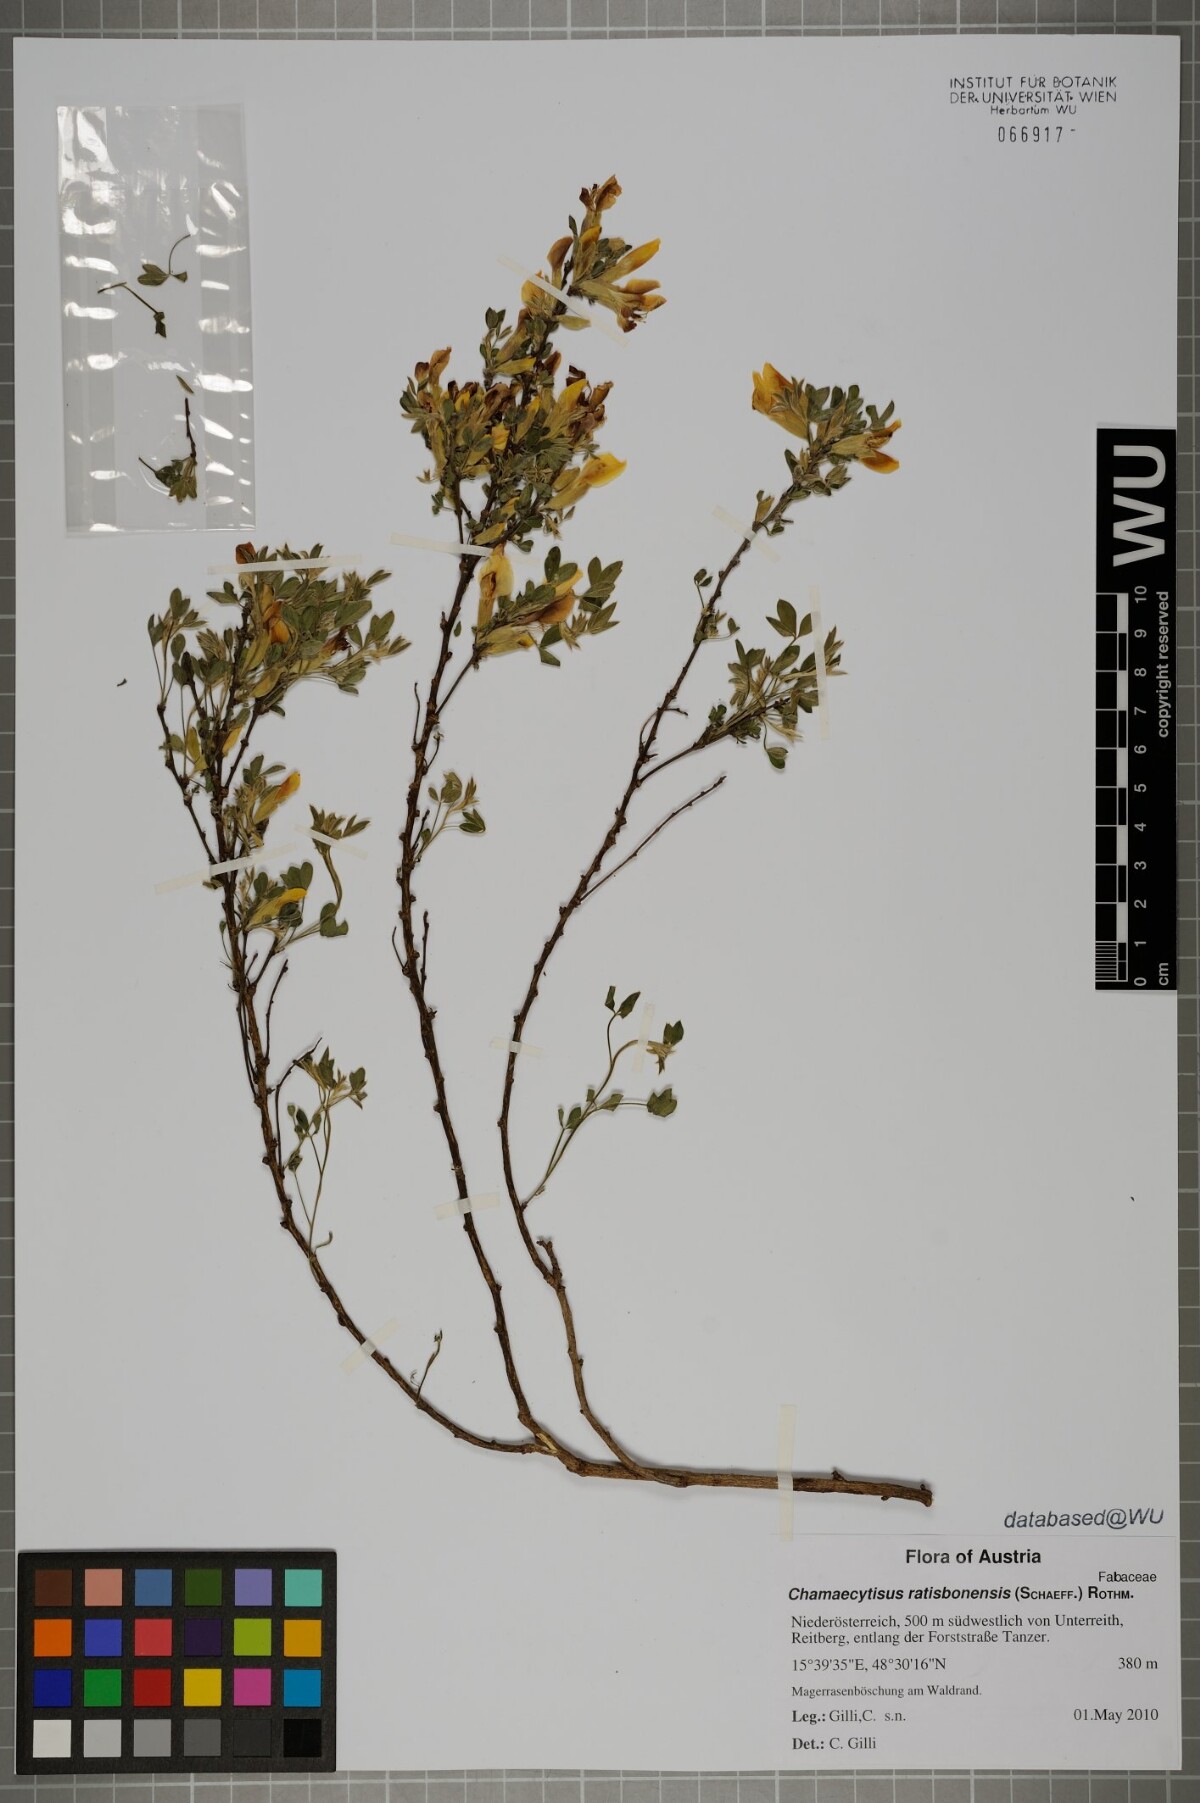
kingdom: Plantae
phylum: Tracheophyta
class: Magnoliopsida
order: Fabales
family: Fabaceae
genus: Chamaecytisus
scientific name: Chamaecytisus ratisbonensis
